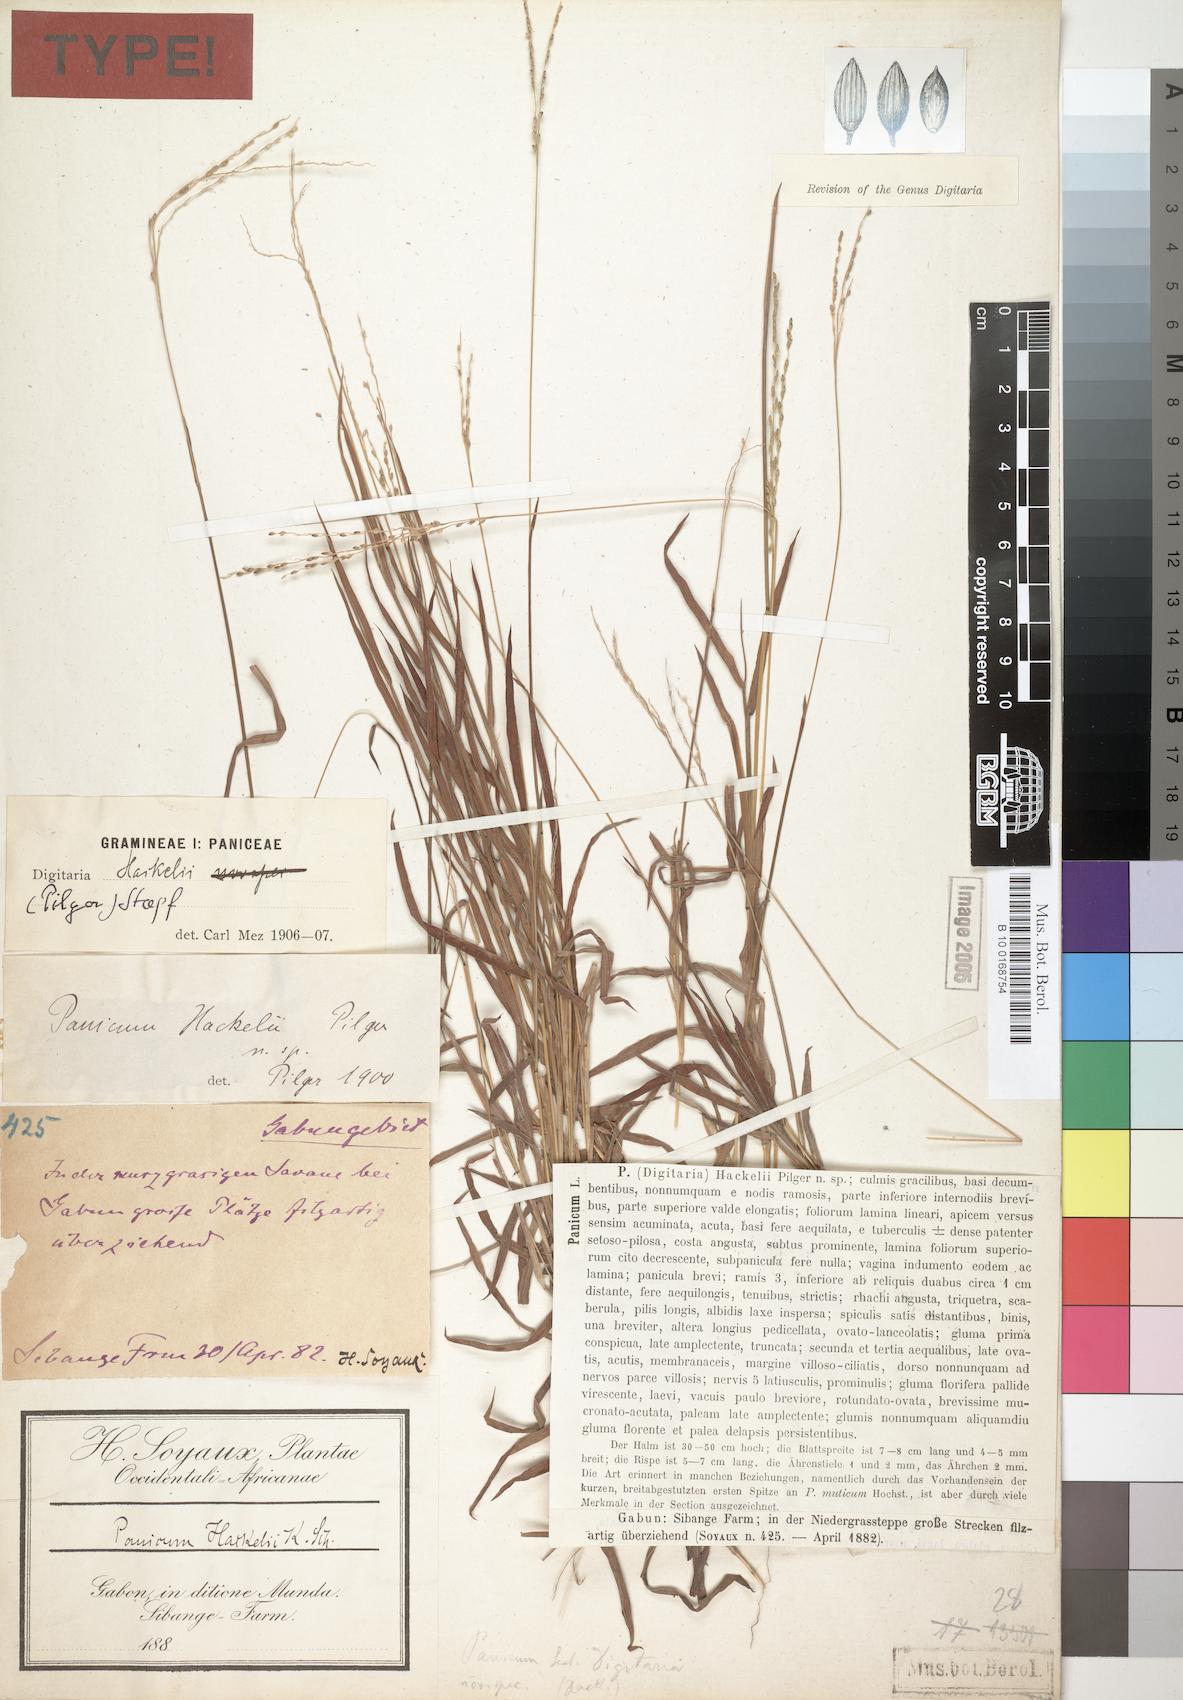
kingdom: Plantae
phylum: Tracheophyta
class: Liliopsida
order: Poales
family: Poaceae
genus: Digitaria
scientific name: Digitaria abyssinica
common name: African couchgrass
